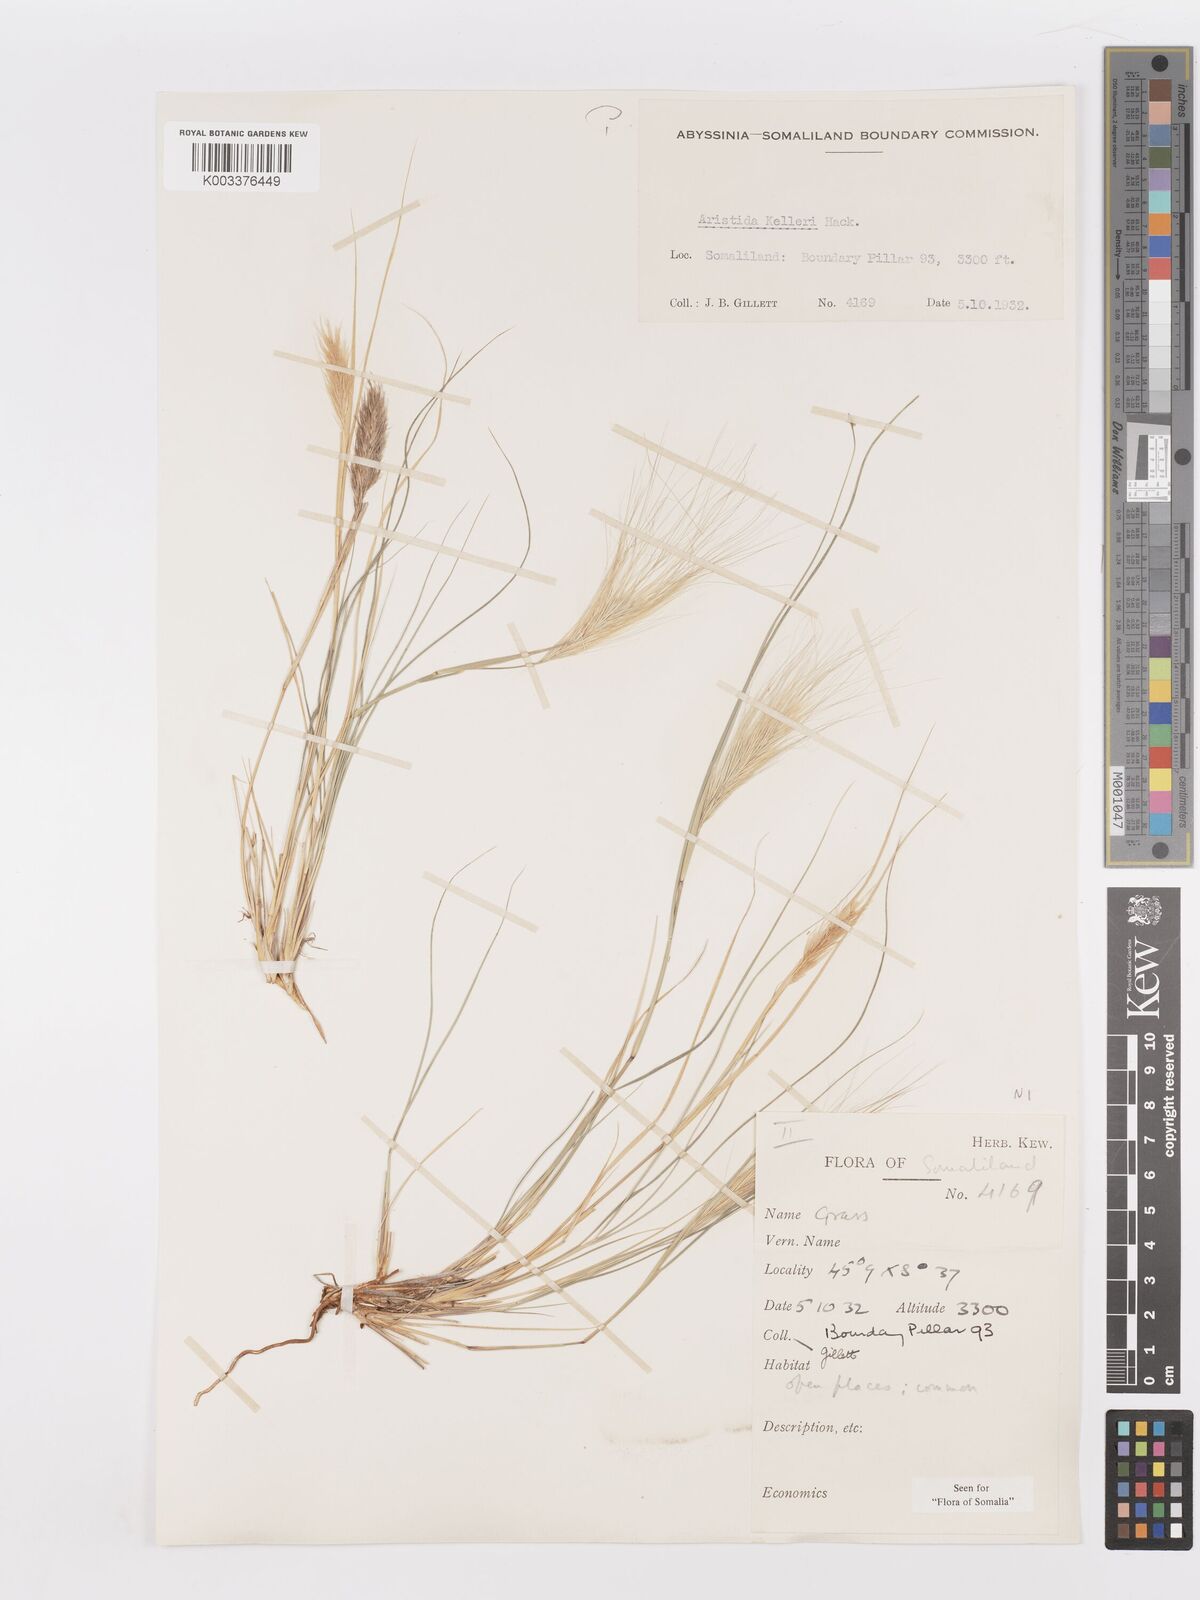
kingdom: Plantae
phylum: Tracheophyta
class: Liliopsida
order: Poales
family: Poaceae
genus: Aristida
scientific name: Aristida kelleri
